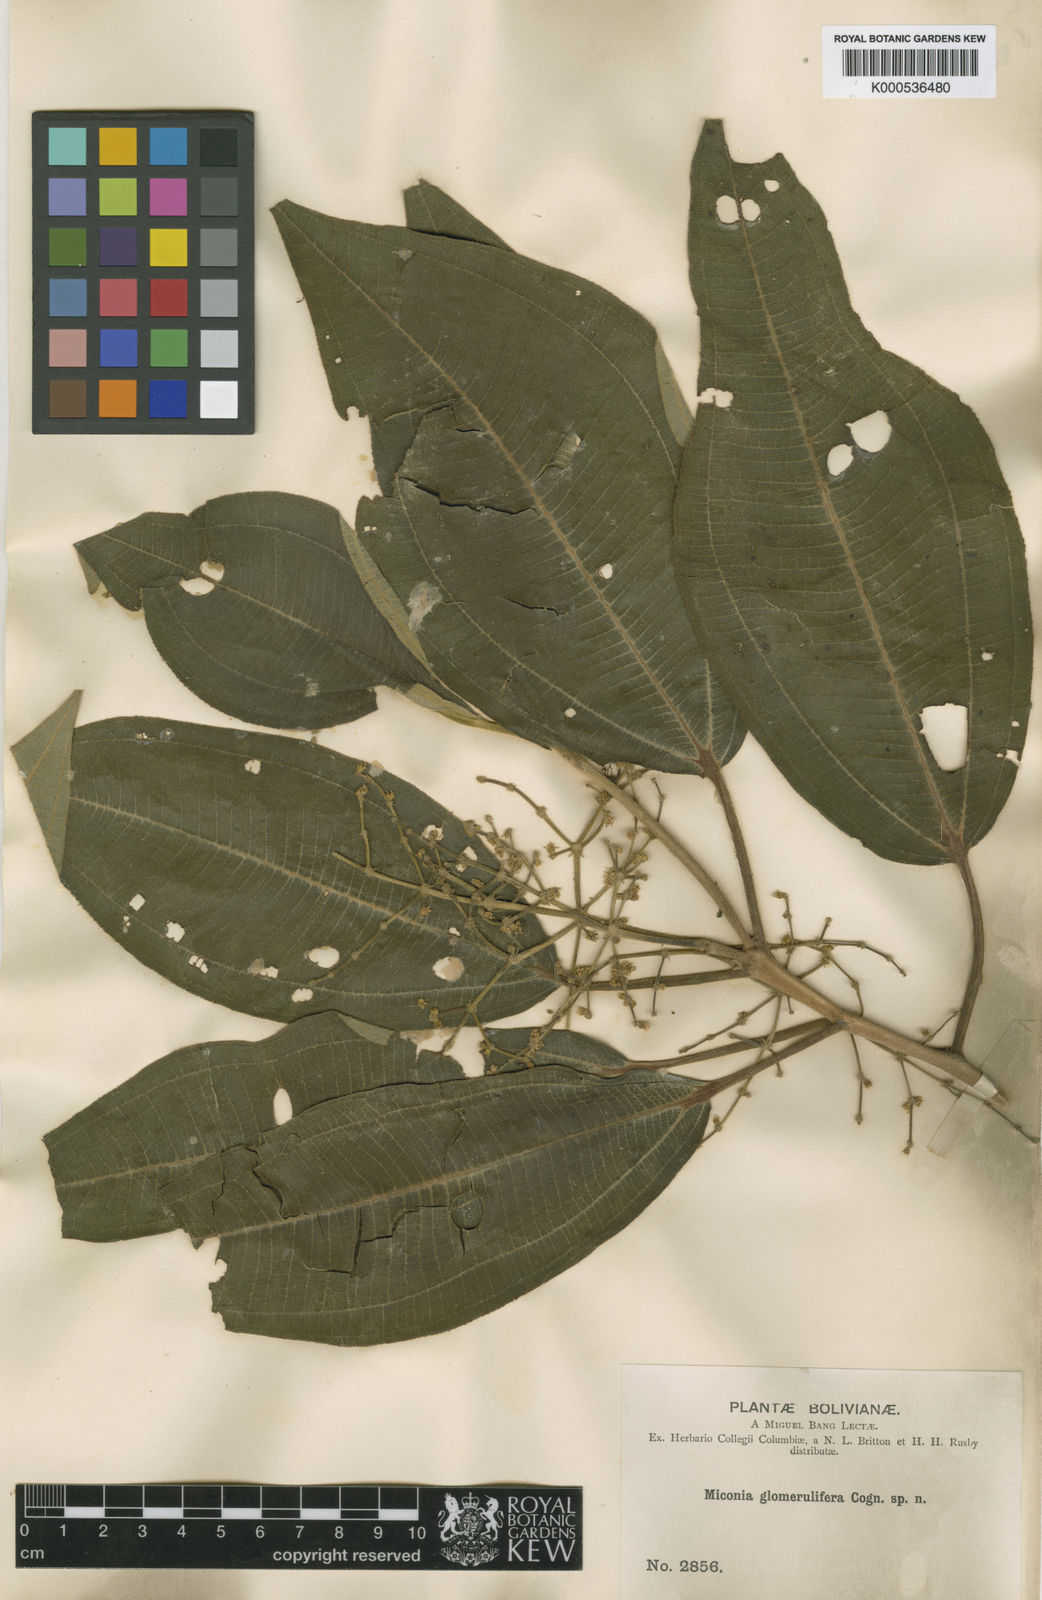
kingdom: Plantae
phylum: Tracheophyta
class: Magnoliopsida
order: Myrtales
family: Melastomataceae
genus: Miconia
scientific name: Miconia glomerulifera
